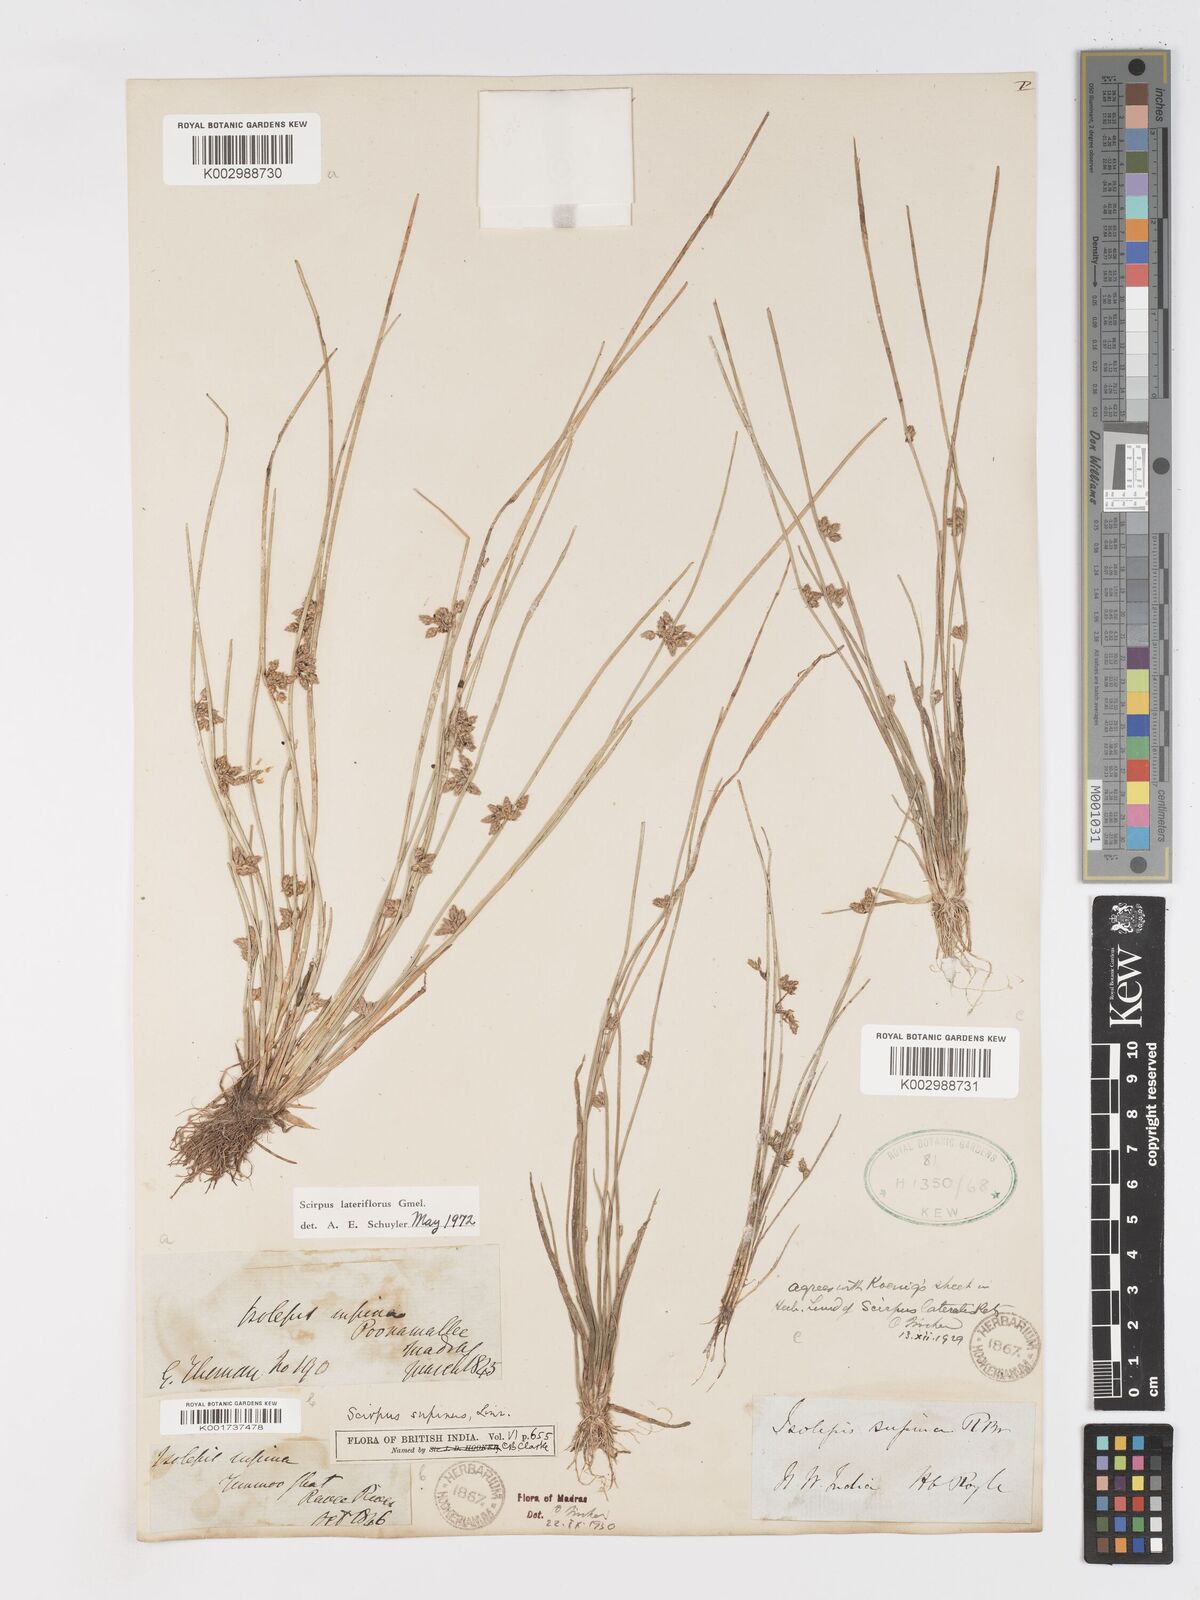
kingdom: Plantae
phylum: Tracheophyta
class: Liliopsida
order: Poales
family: Cyperaceae
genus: Schoenoplectiella
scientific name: Schoenoplectiella lateriflora
